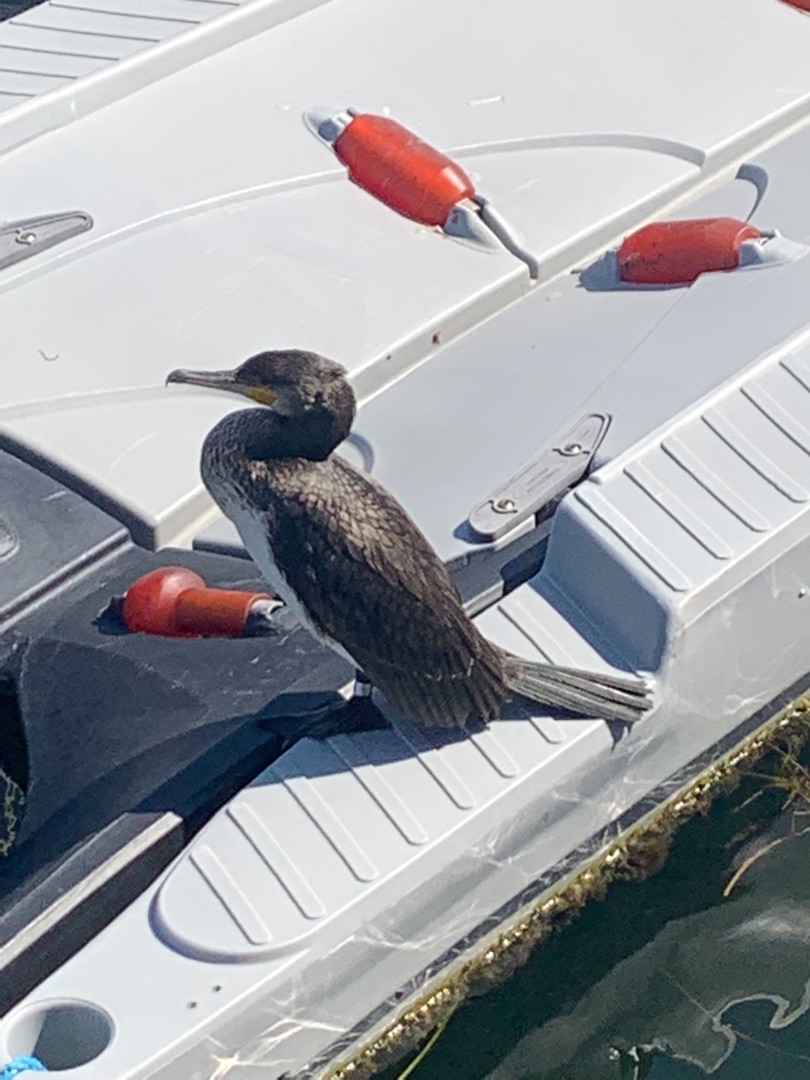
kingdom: Animalia
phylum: Chordata
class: Aves
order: Suliformes
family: Phalacrocoracidae
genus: Phalacrocorax
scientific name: Phalacrocorax carbo
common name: Skarv
